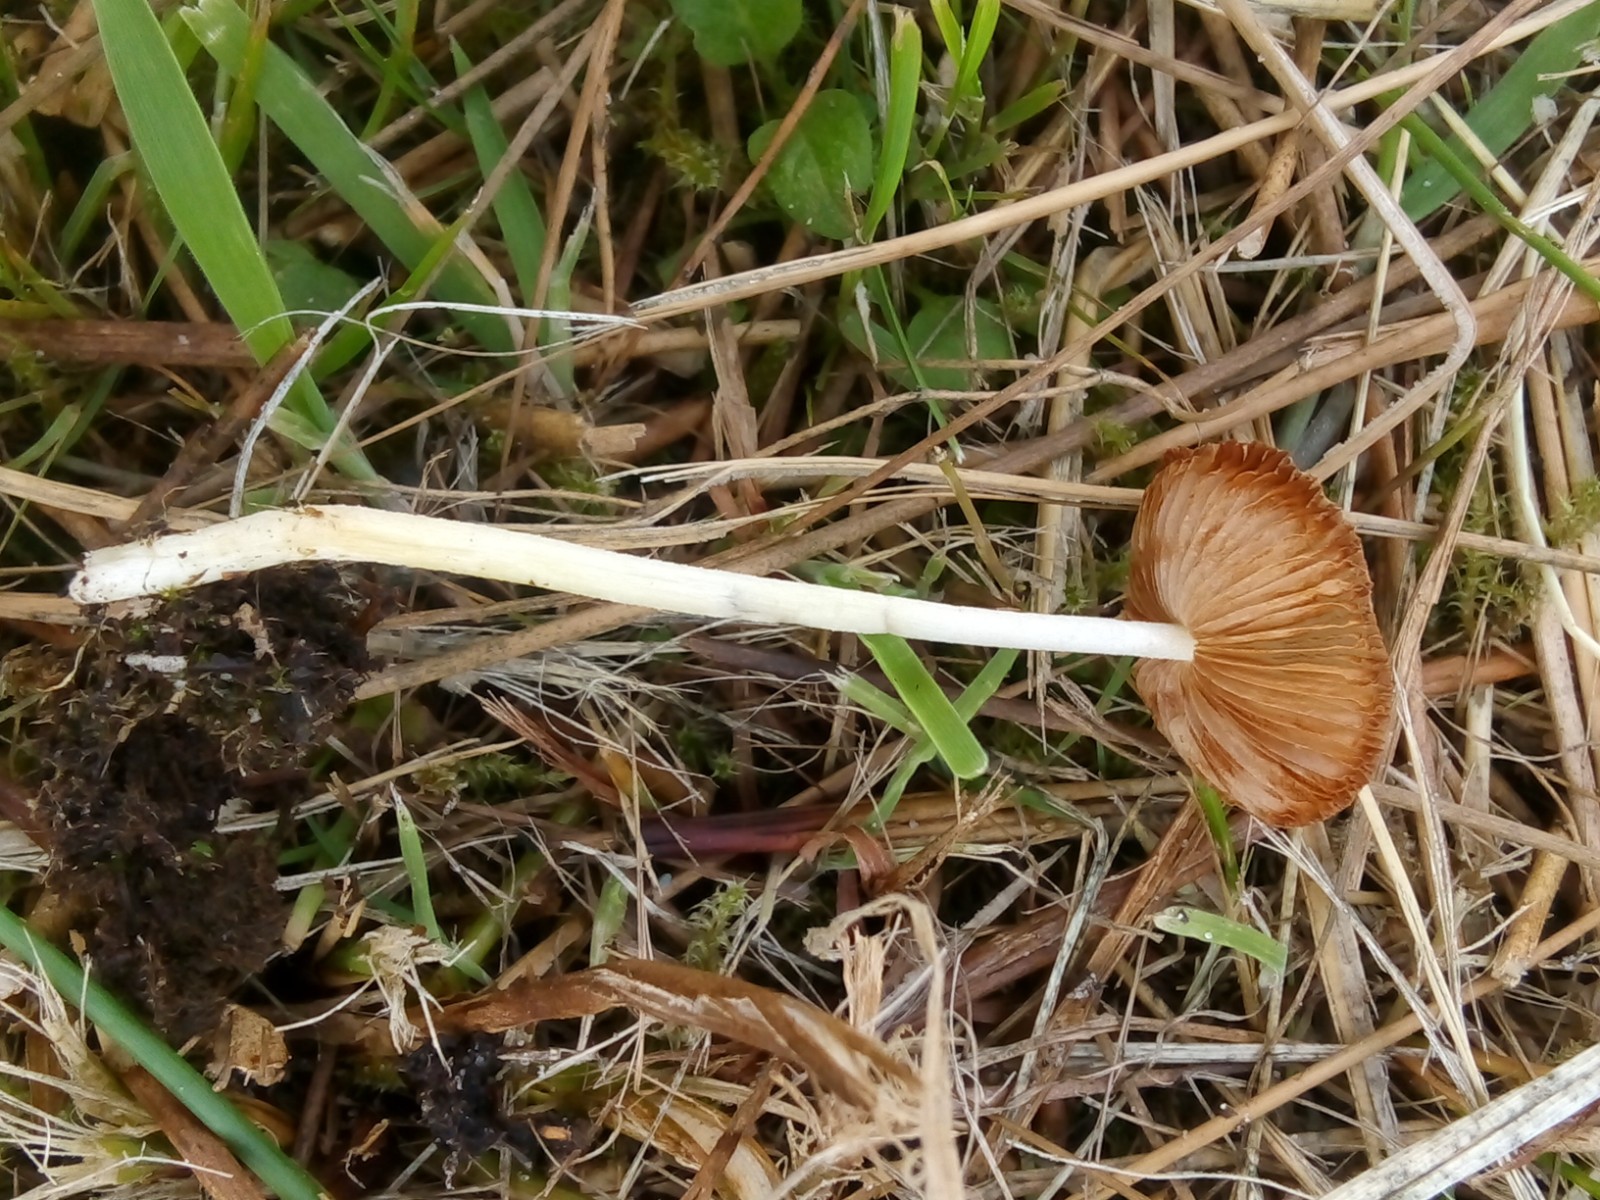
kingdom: Fungi
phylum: Basidiomycota
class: Agaricomycetes
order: Agaricales
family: Bolbitiaceae
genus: Bolbitius
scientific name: Bolbitius titubans
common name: almindelig gulhat
